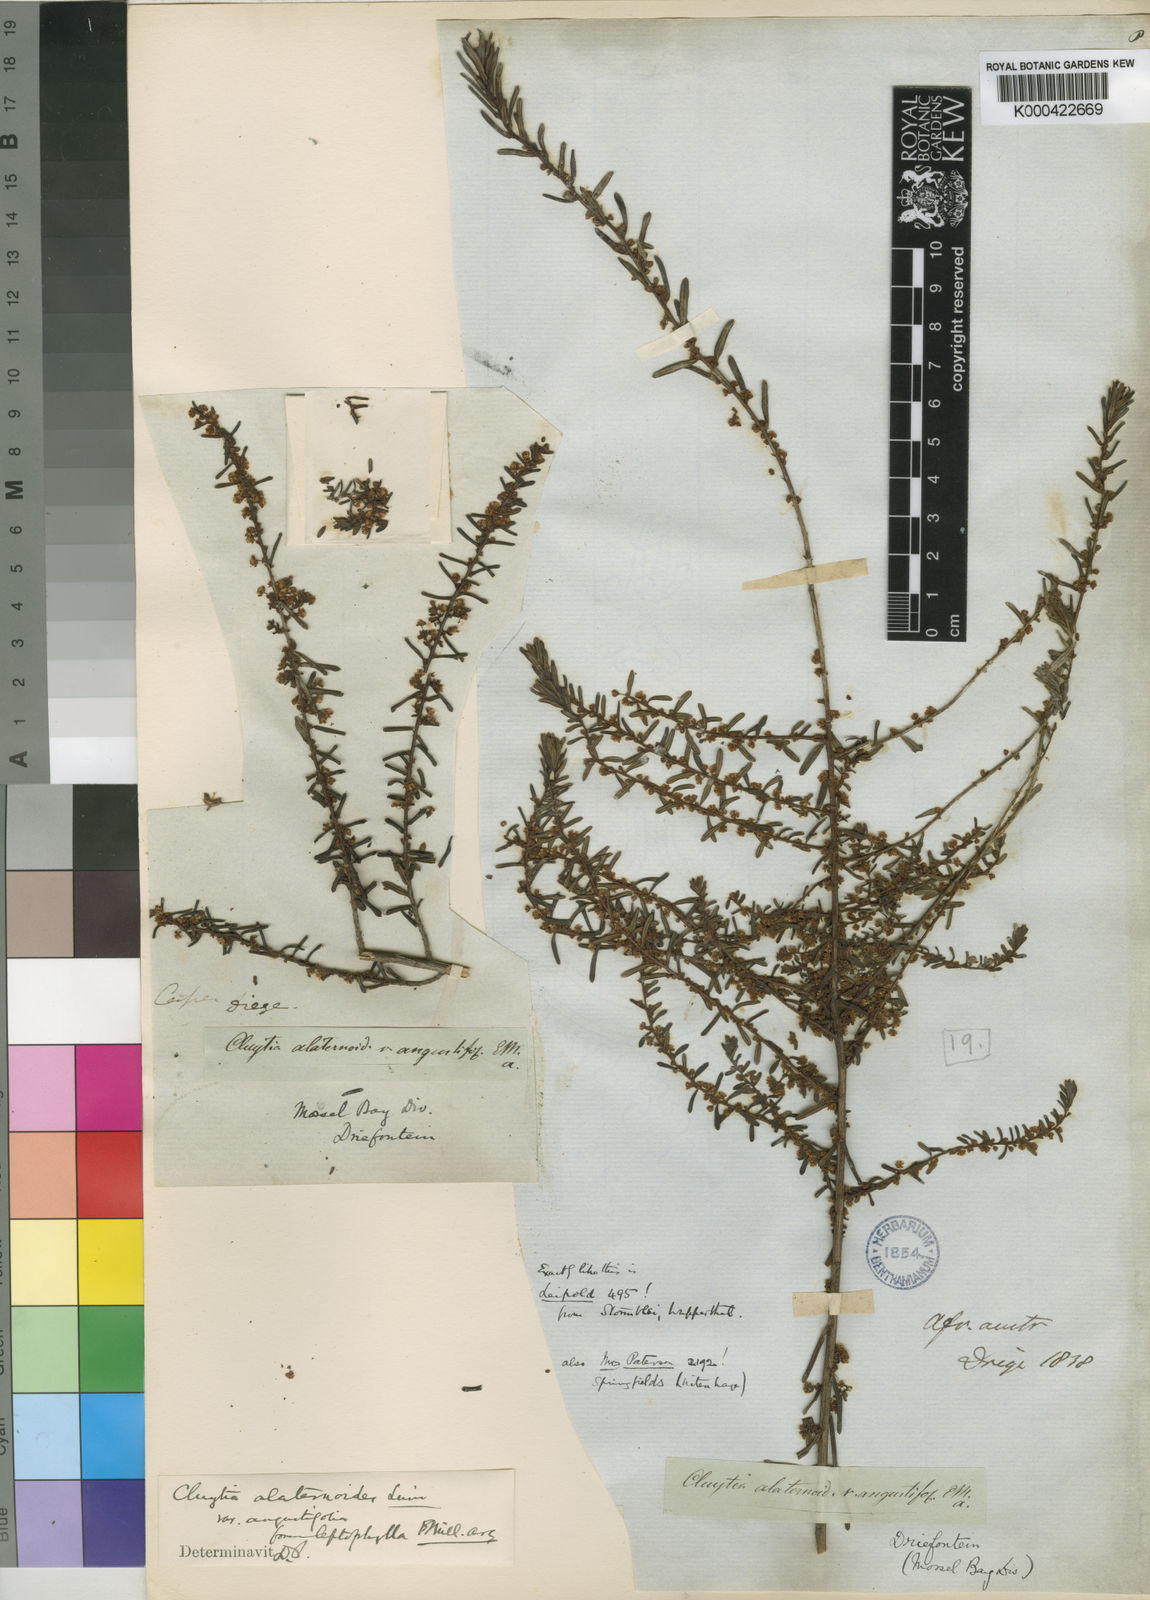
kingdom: Plantae
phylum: Tracheophyta
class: Magnoliopsida
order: Malpighiales
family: Peraceae
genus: Clutia
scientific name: Clutia alaternoides
